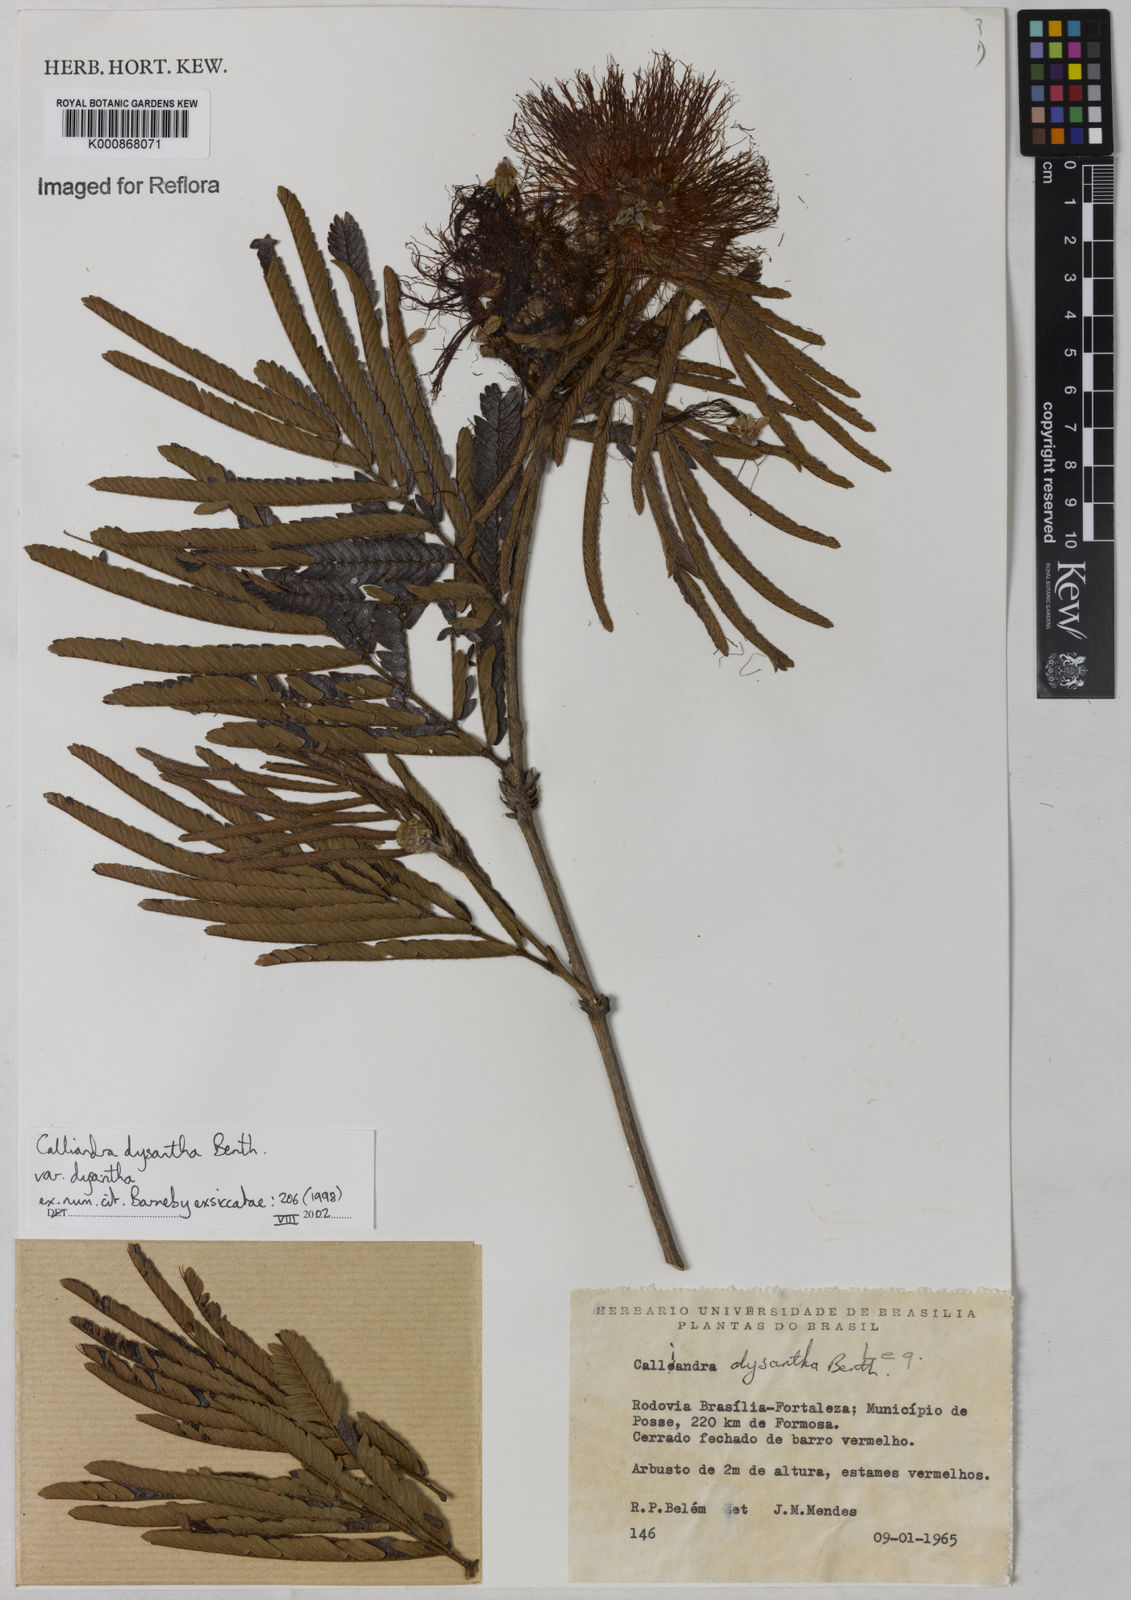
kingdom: Plantae
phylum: Tracheophyta
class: Magnoliopsida
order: Fabales
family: Fabaceae
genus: Calliandra
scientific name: Calliandra dysantha
